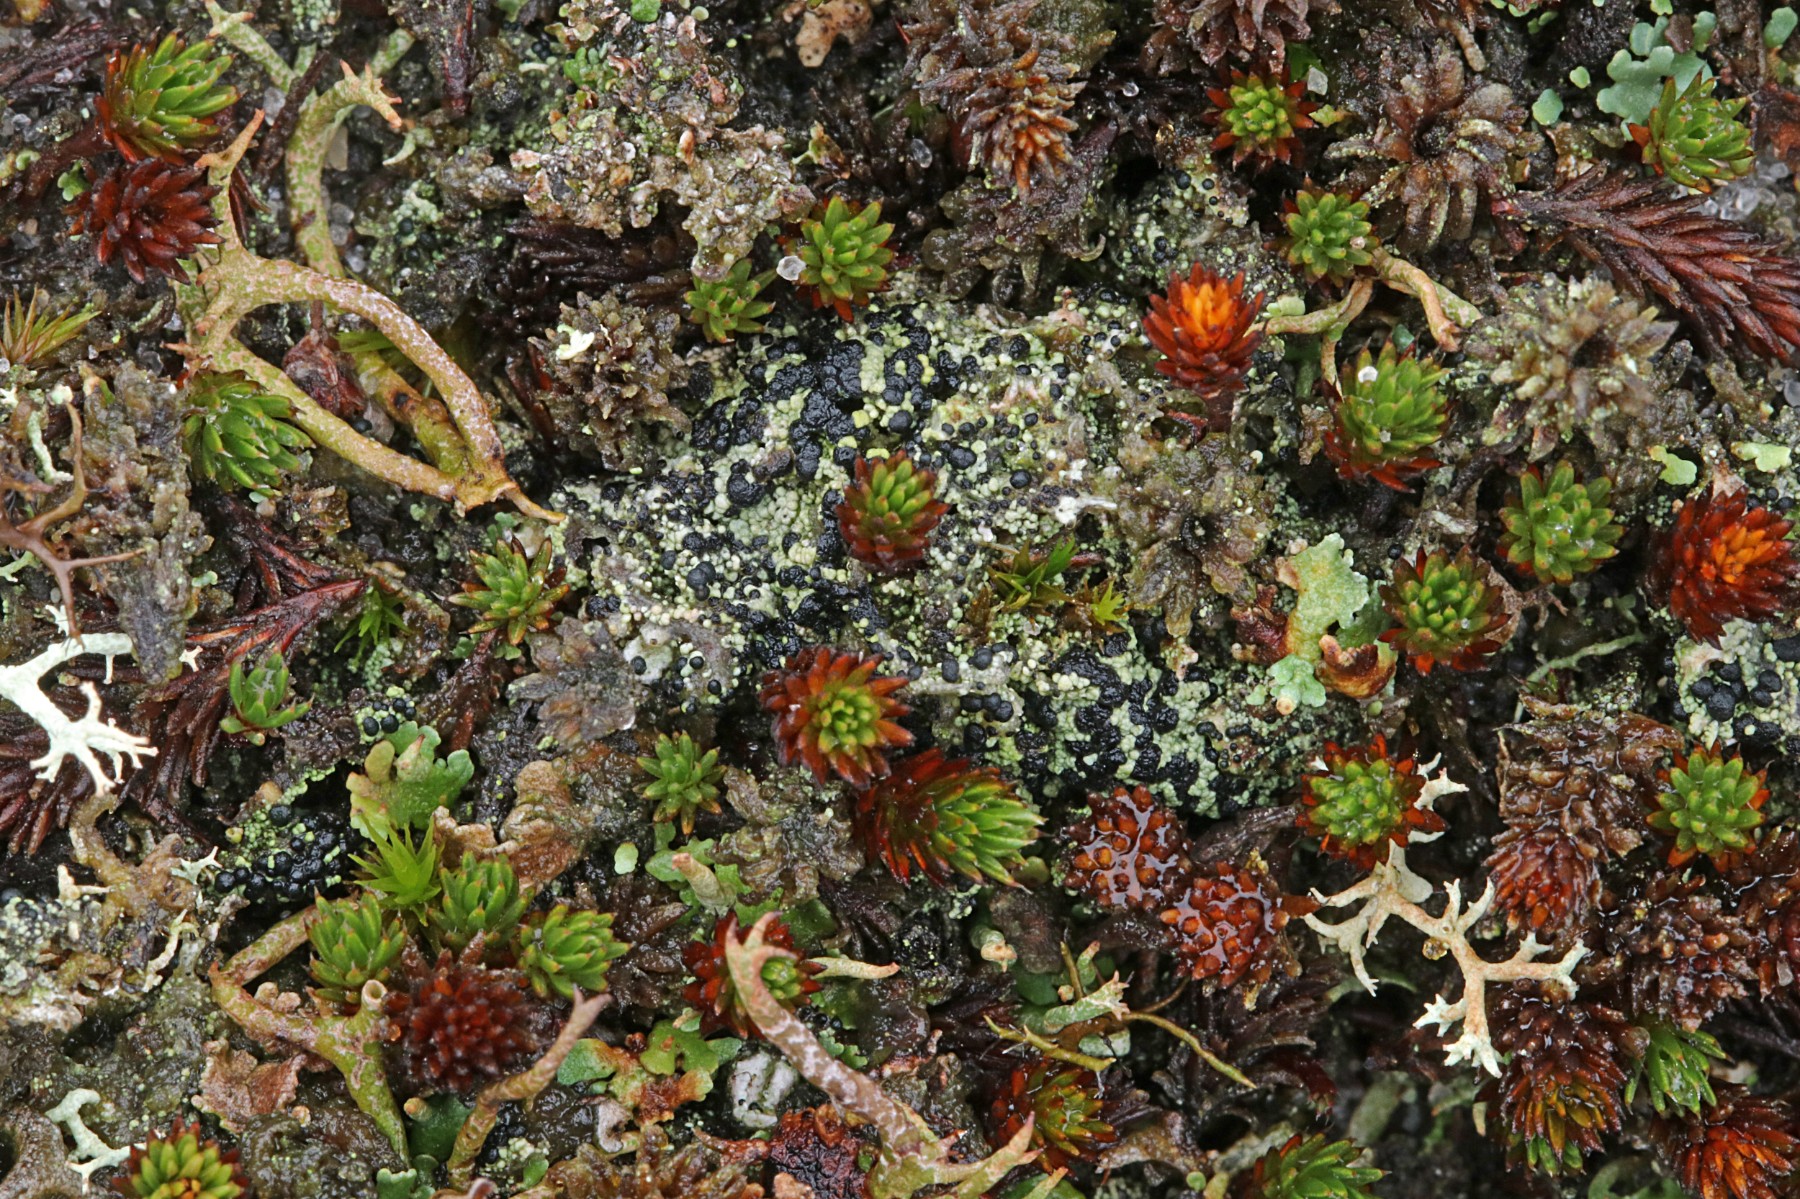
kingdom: Fungi
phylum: Ascomycota
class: Lecanoromycetes
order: Lecanorales
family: Byssolomataceae
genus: Micarea
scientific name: Micarea lignaria
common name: tørve-knaplav
